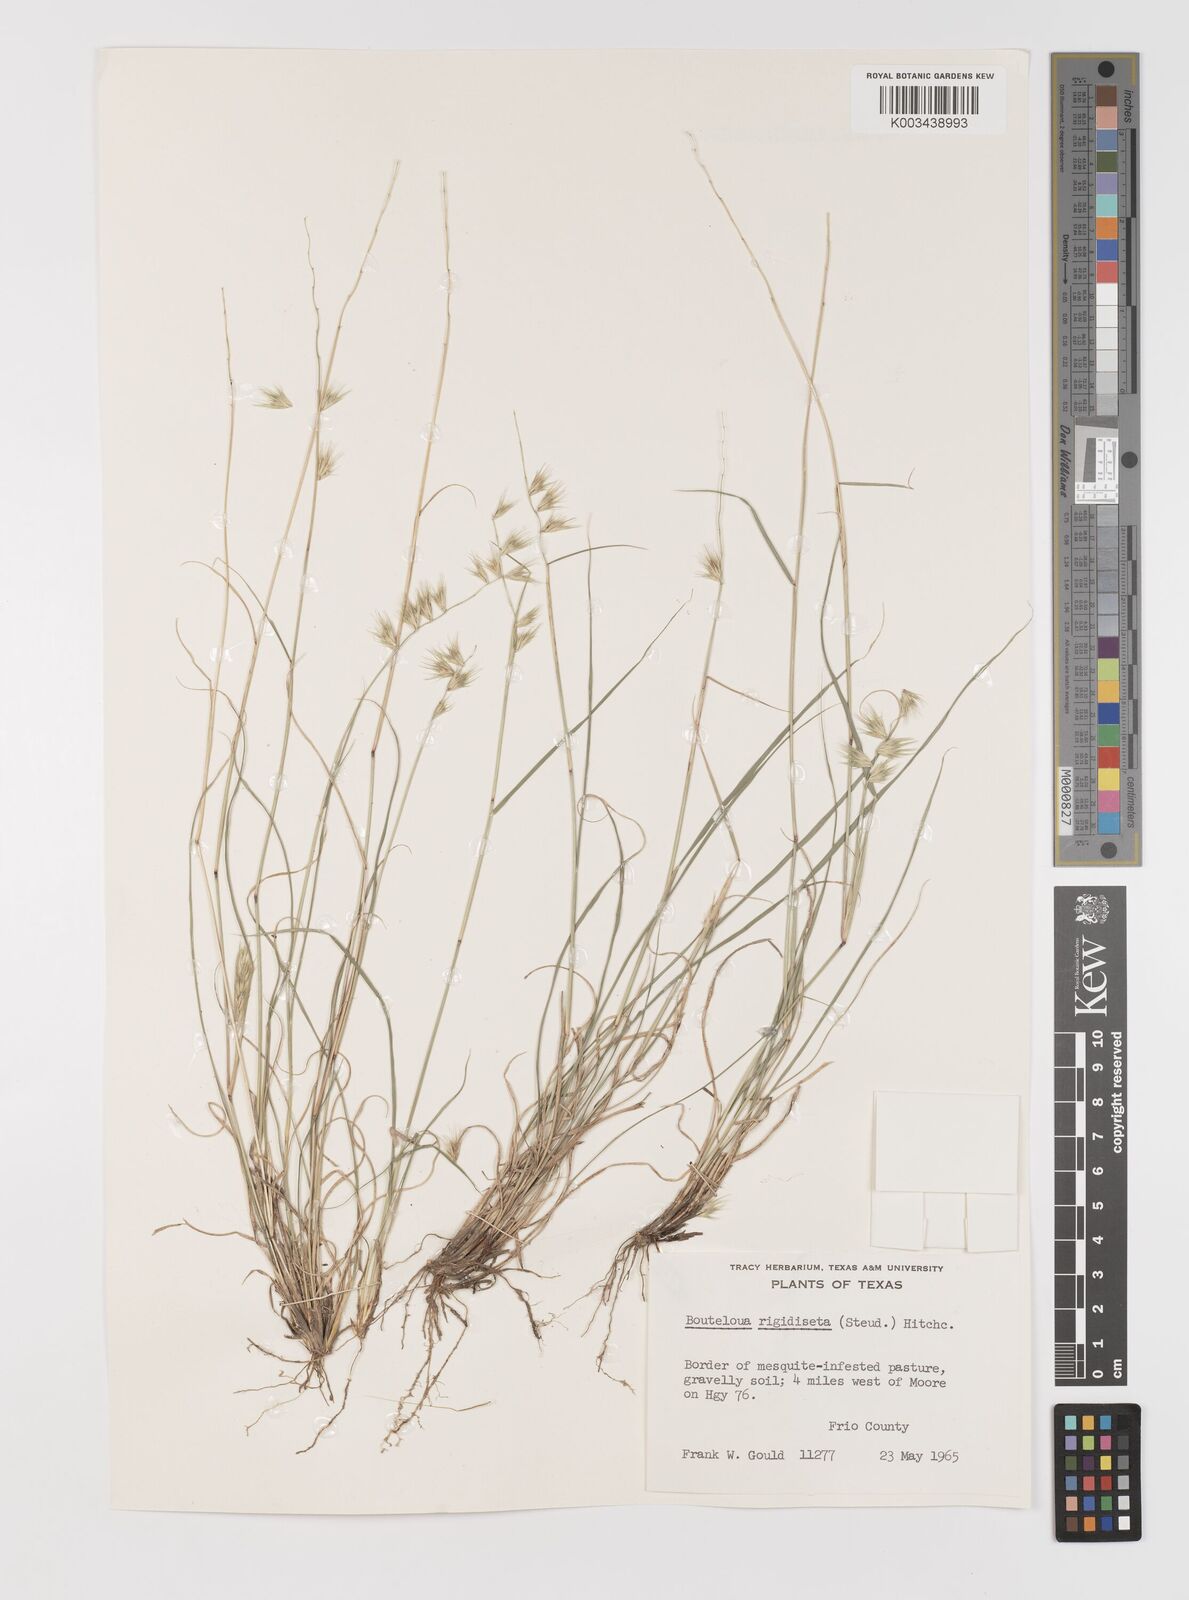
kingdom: Plantae
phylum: Tracheophyta
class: Liliopsida
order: Poales
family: Poaceae
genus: Bouteloua
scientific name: Bouteloua rigidiseta
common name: Texas grama
